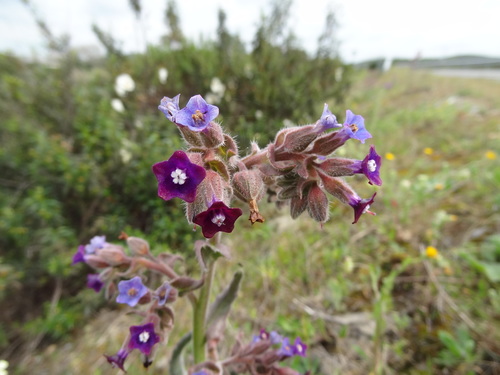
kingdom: Plantae
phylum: Tracheophyta
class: Magnoliopsida
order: Boraginales
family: Boraginaceae
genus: Anchusa
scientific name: Anchusa undulata
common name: Undulate alkanet
